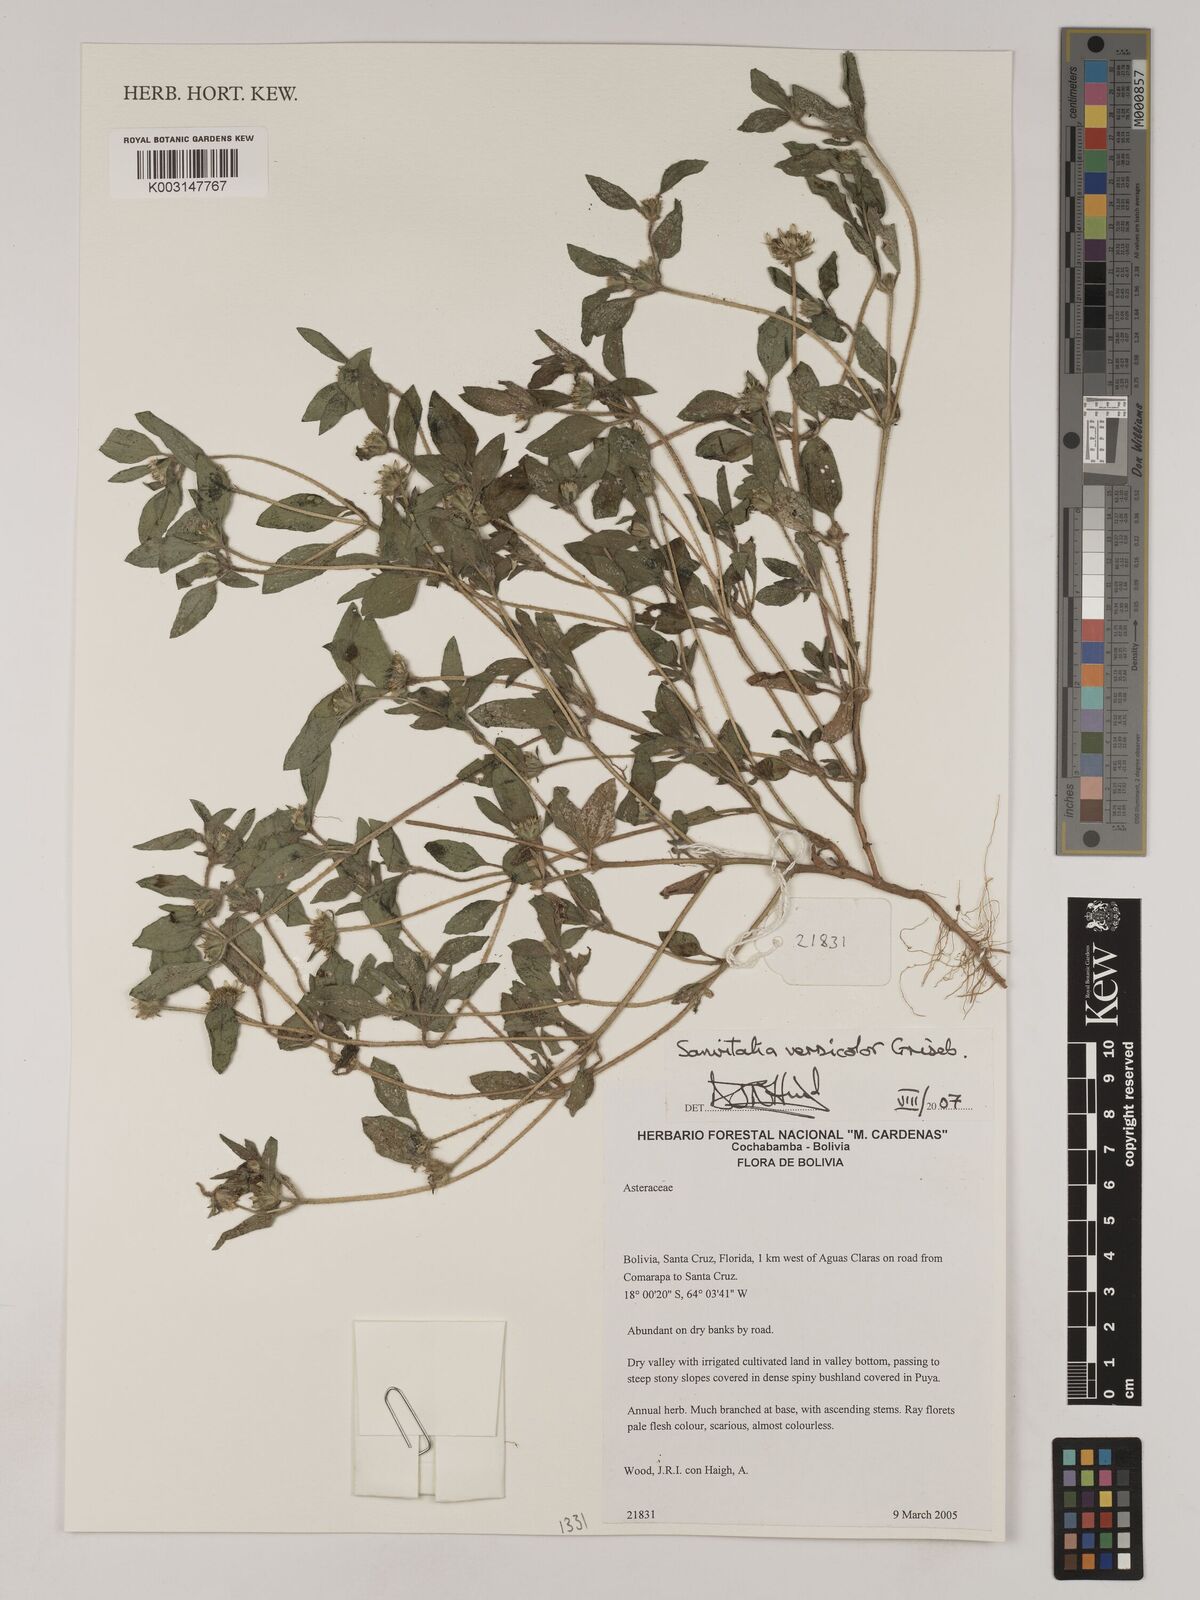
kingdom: Plantae
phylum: Tracheophyta
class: Magnoliopsida
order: Asterales
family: Asteraceae
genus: Sanvitalia
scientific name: Sanvitalia versicolor
